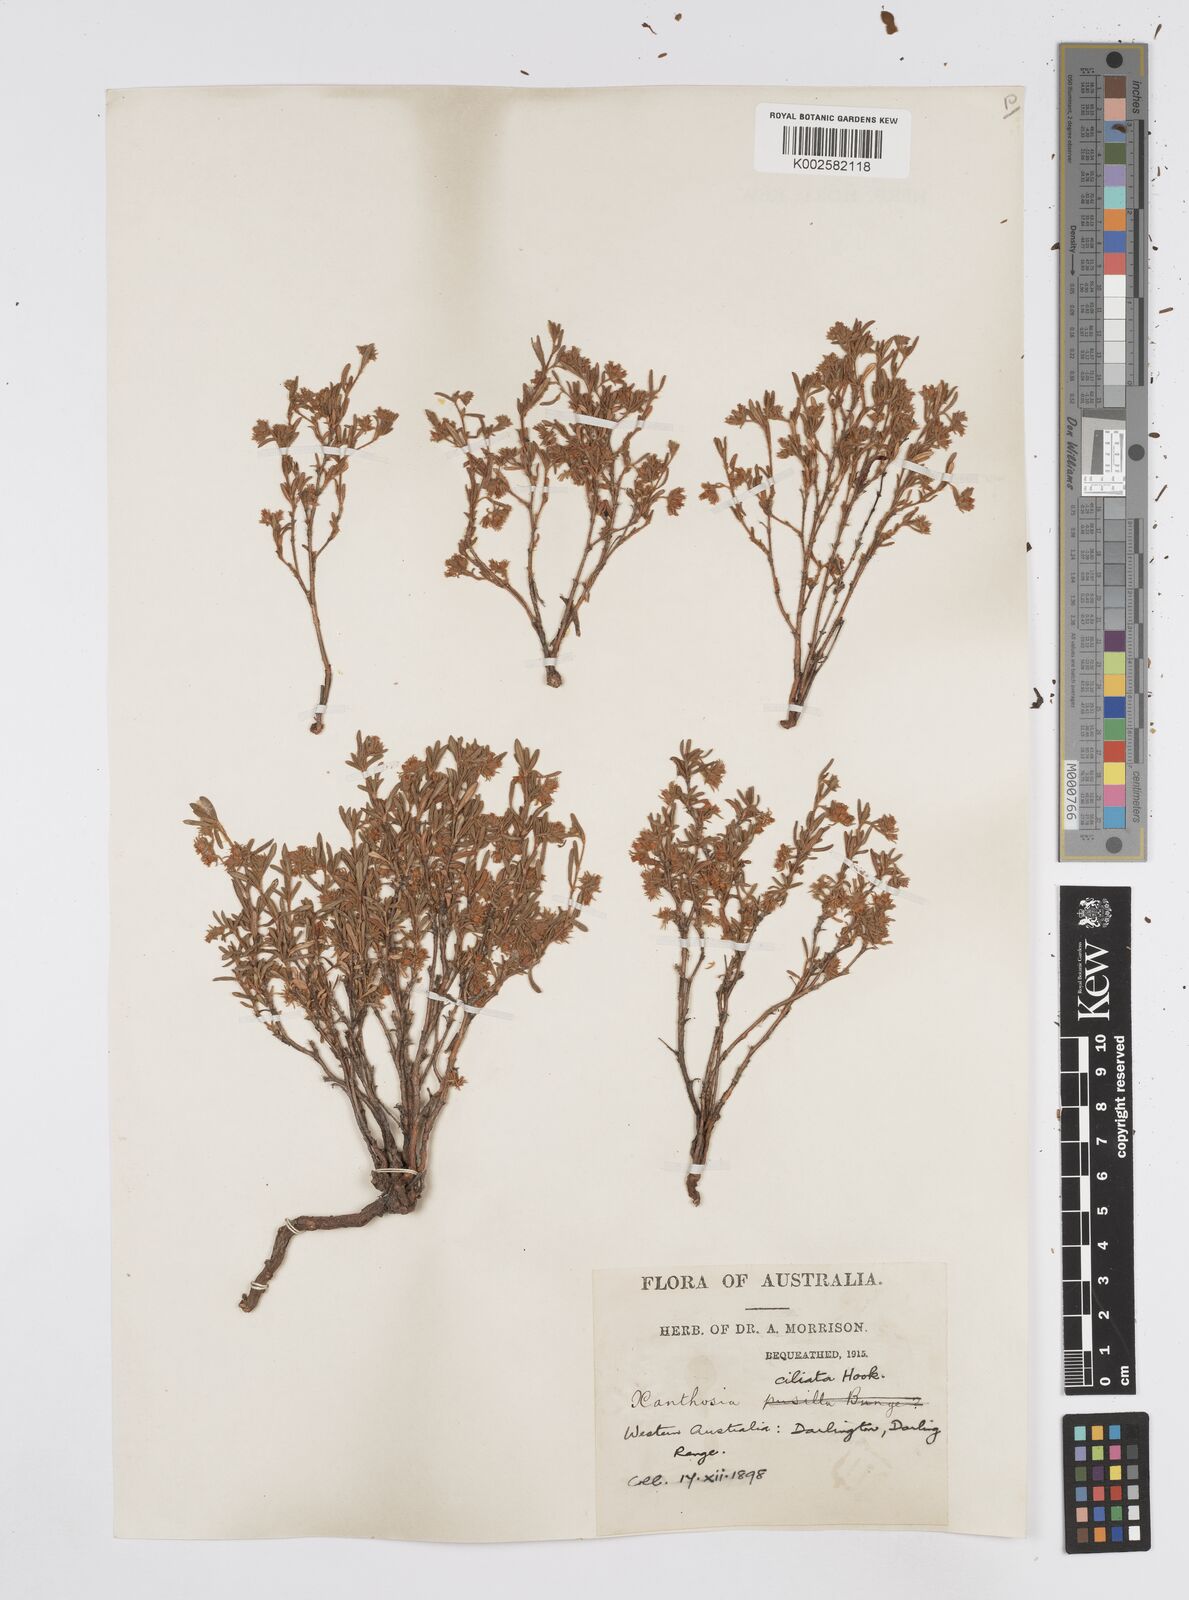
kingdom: Plantae
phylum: Tracheophyta
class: Magnoliopsida
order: Apiales
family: Apiaceae
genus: Xanthosia
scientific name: Xanthosia ciliata
